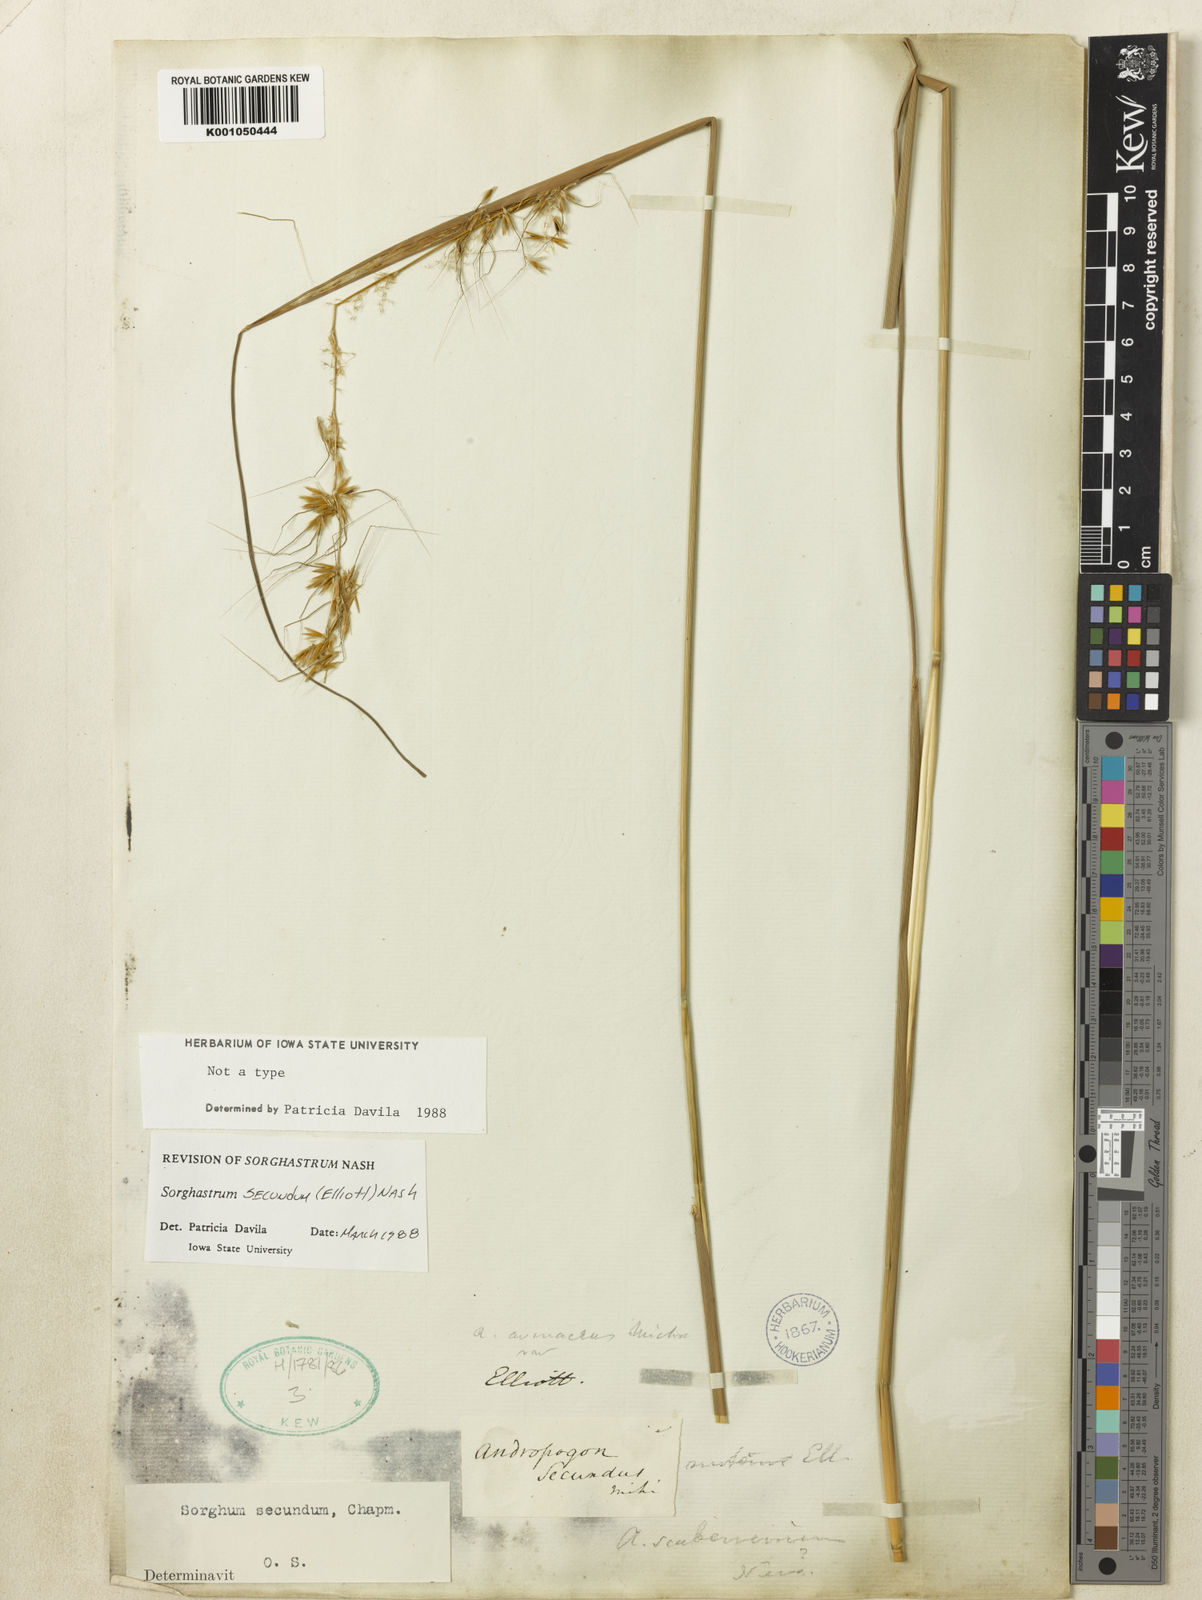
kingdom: Plantae
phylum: Tracheophyta
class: Liliopsida
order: Poales
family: Poaceae
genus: Sorghastrum
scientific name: Sorghastrum secundum
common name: Lopsided indian grass
